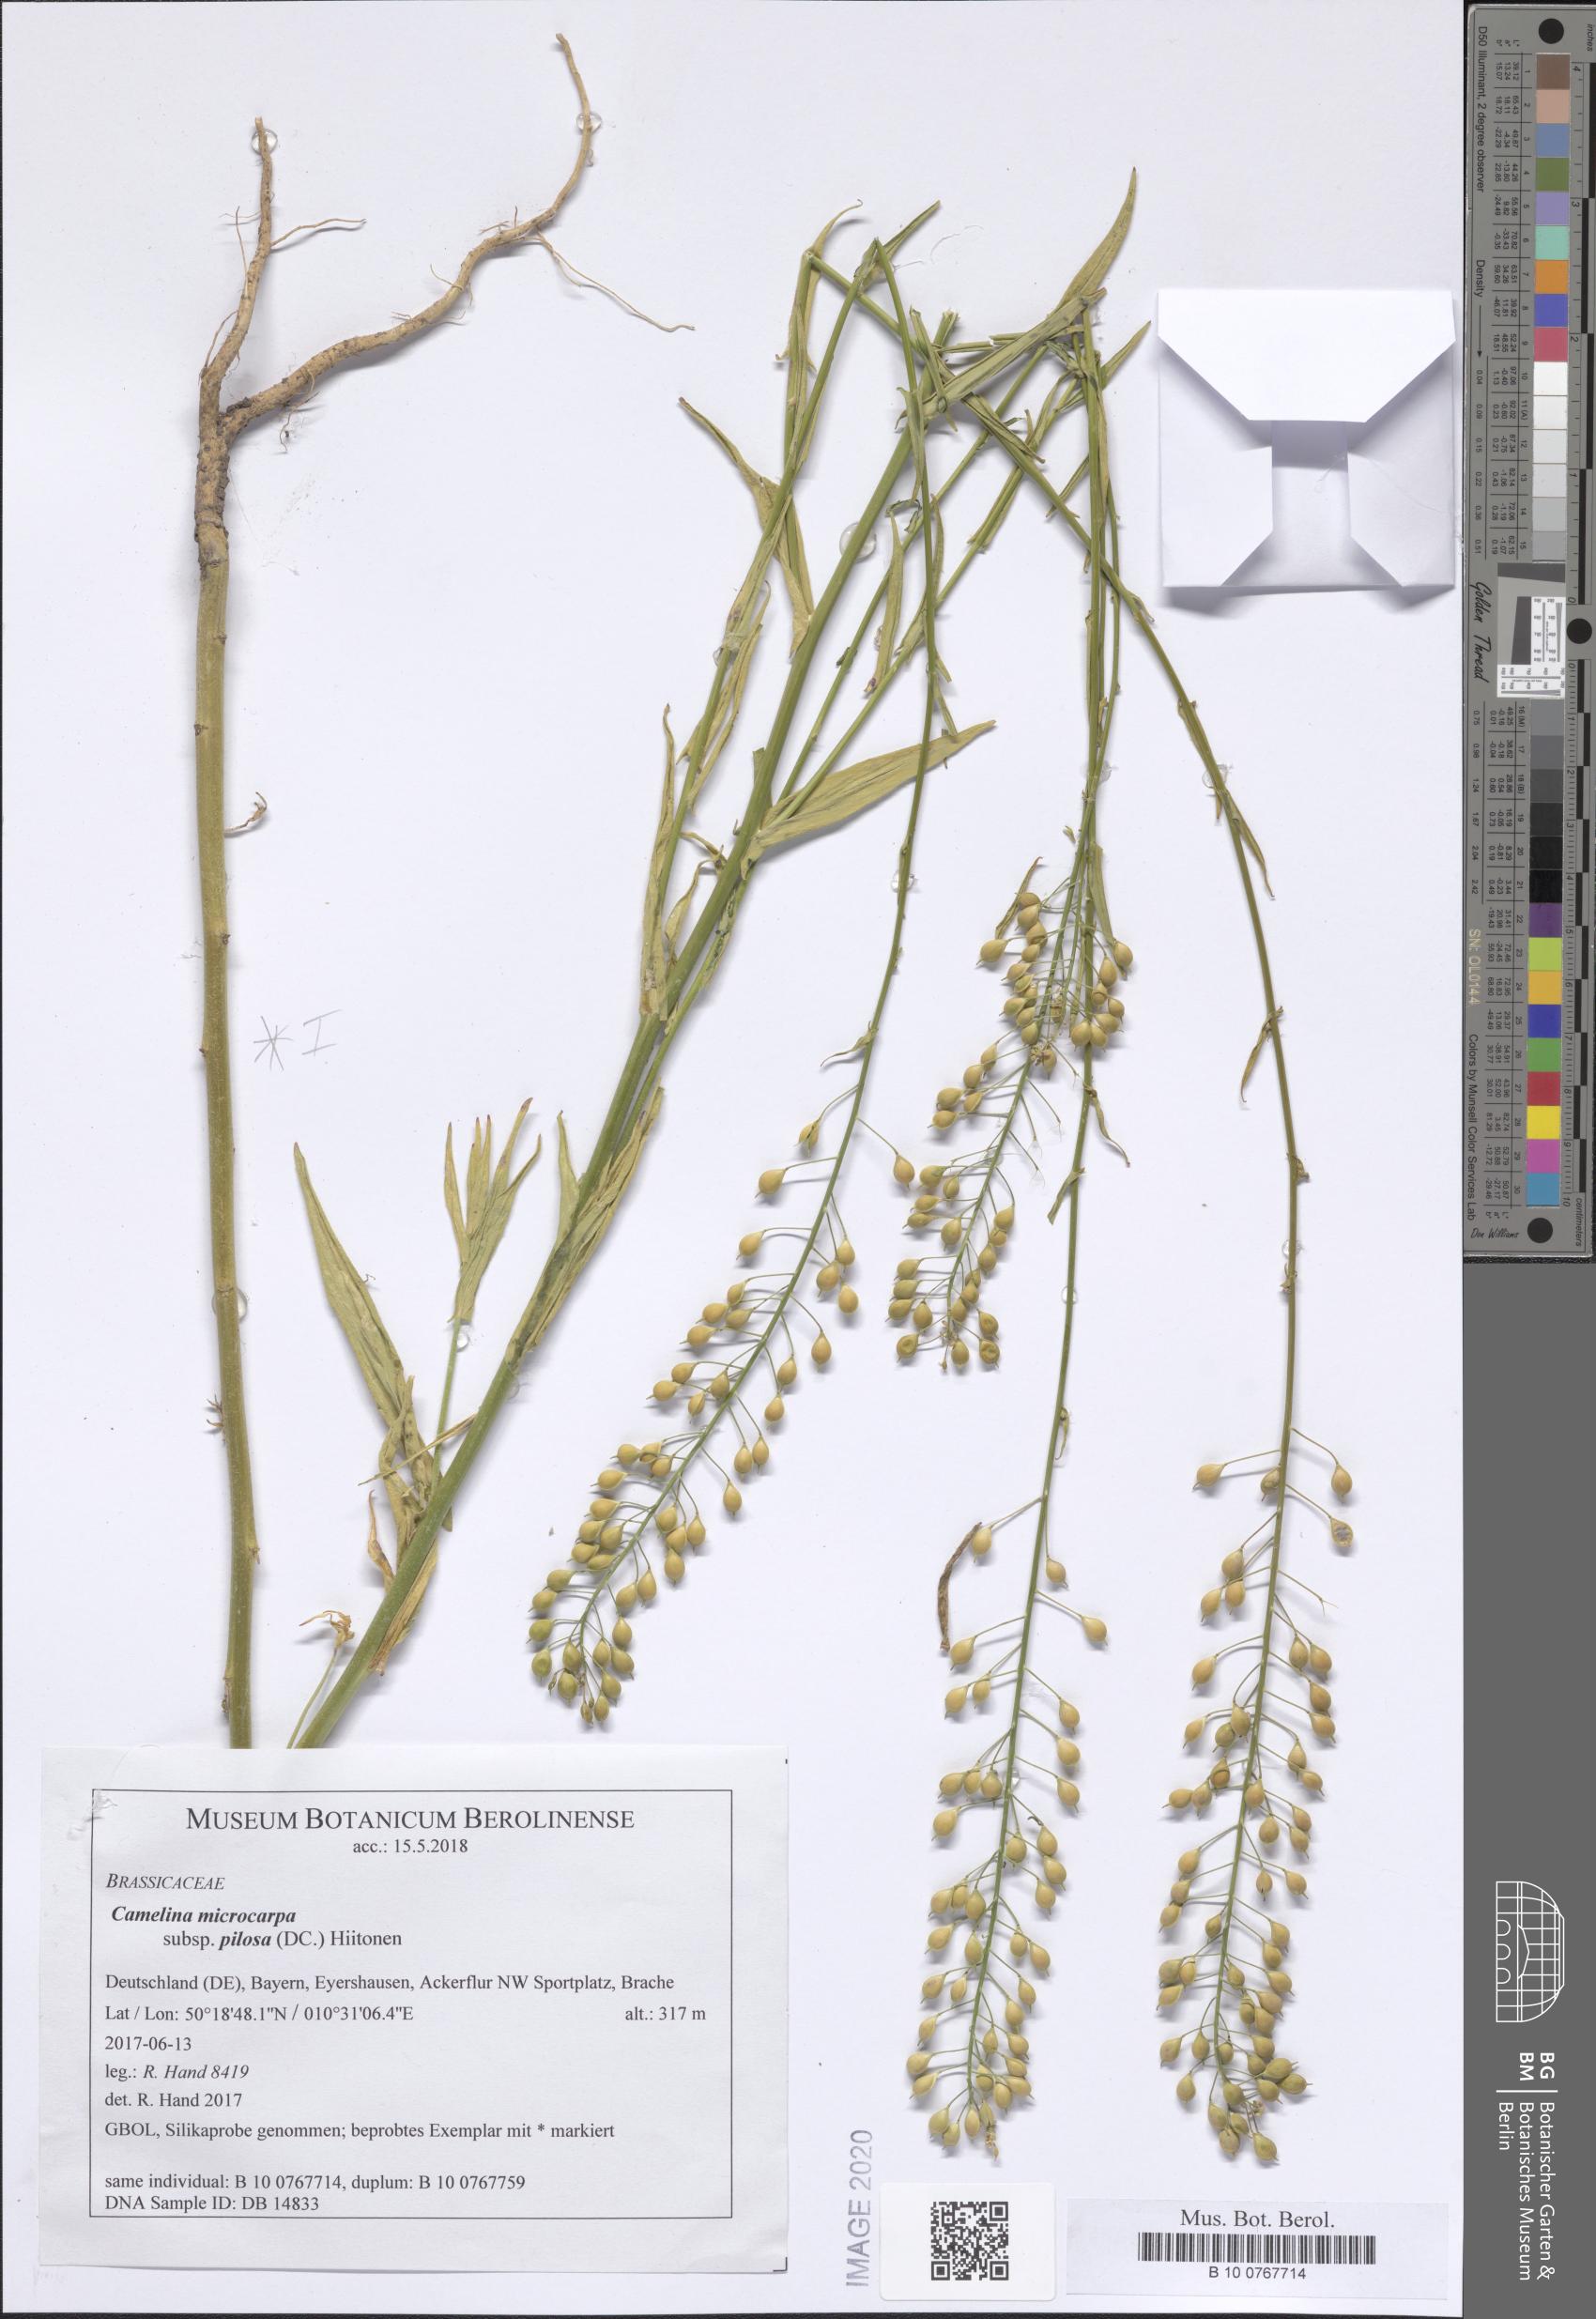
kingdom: Plantae
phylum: Tracheophyta
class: Magnoliopsida
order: Brassicales
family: Brassicaceae
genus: Camelina
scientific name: Camelina microcarpa
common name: Lesser gold-of-pleasure
